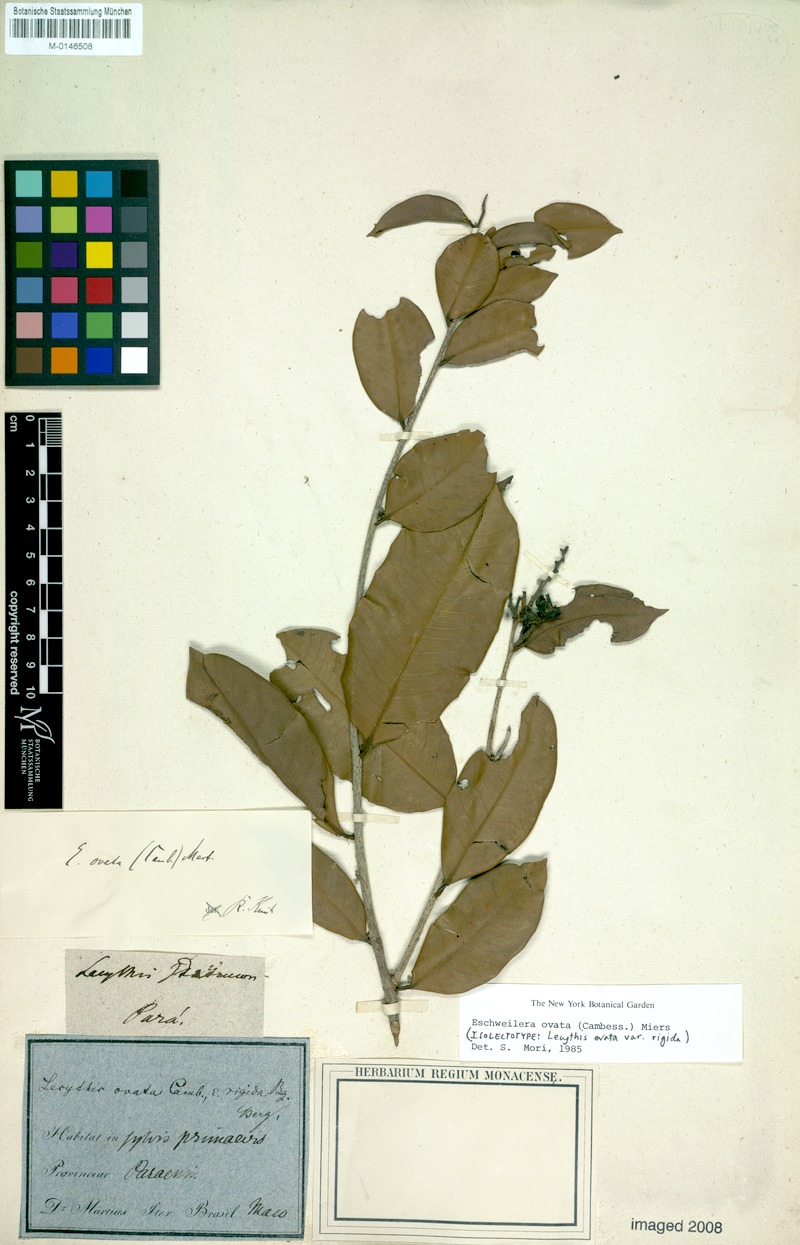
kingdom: Plantae
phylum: Tracheophyta
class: Magnoliopsida
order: Ericales
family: Lecythidaceae
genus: Eschweilera
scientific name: Eschweilera ovata
